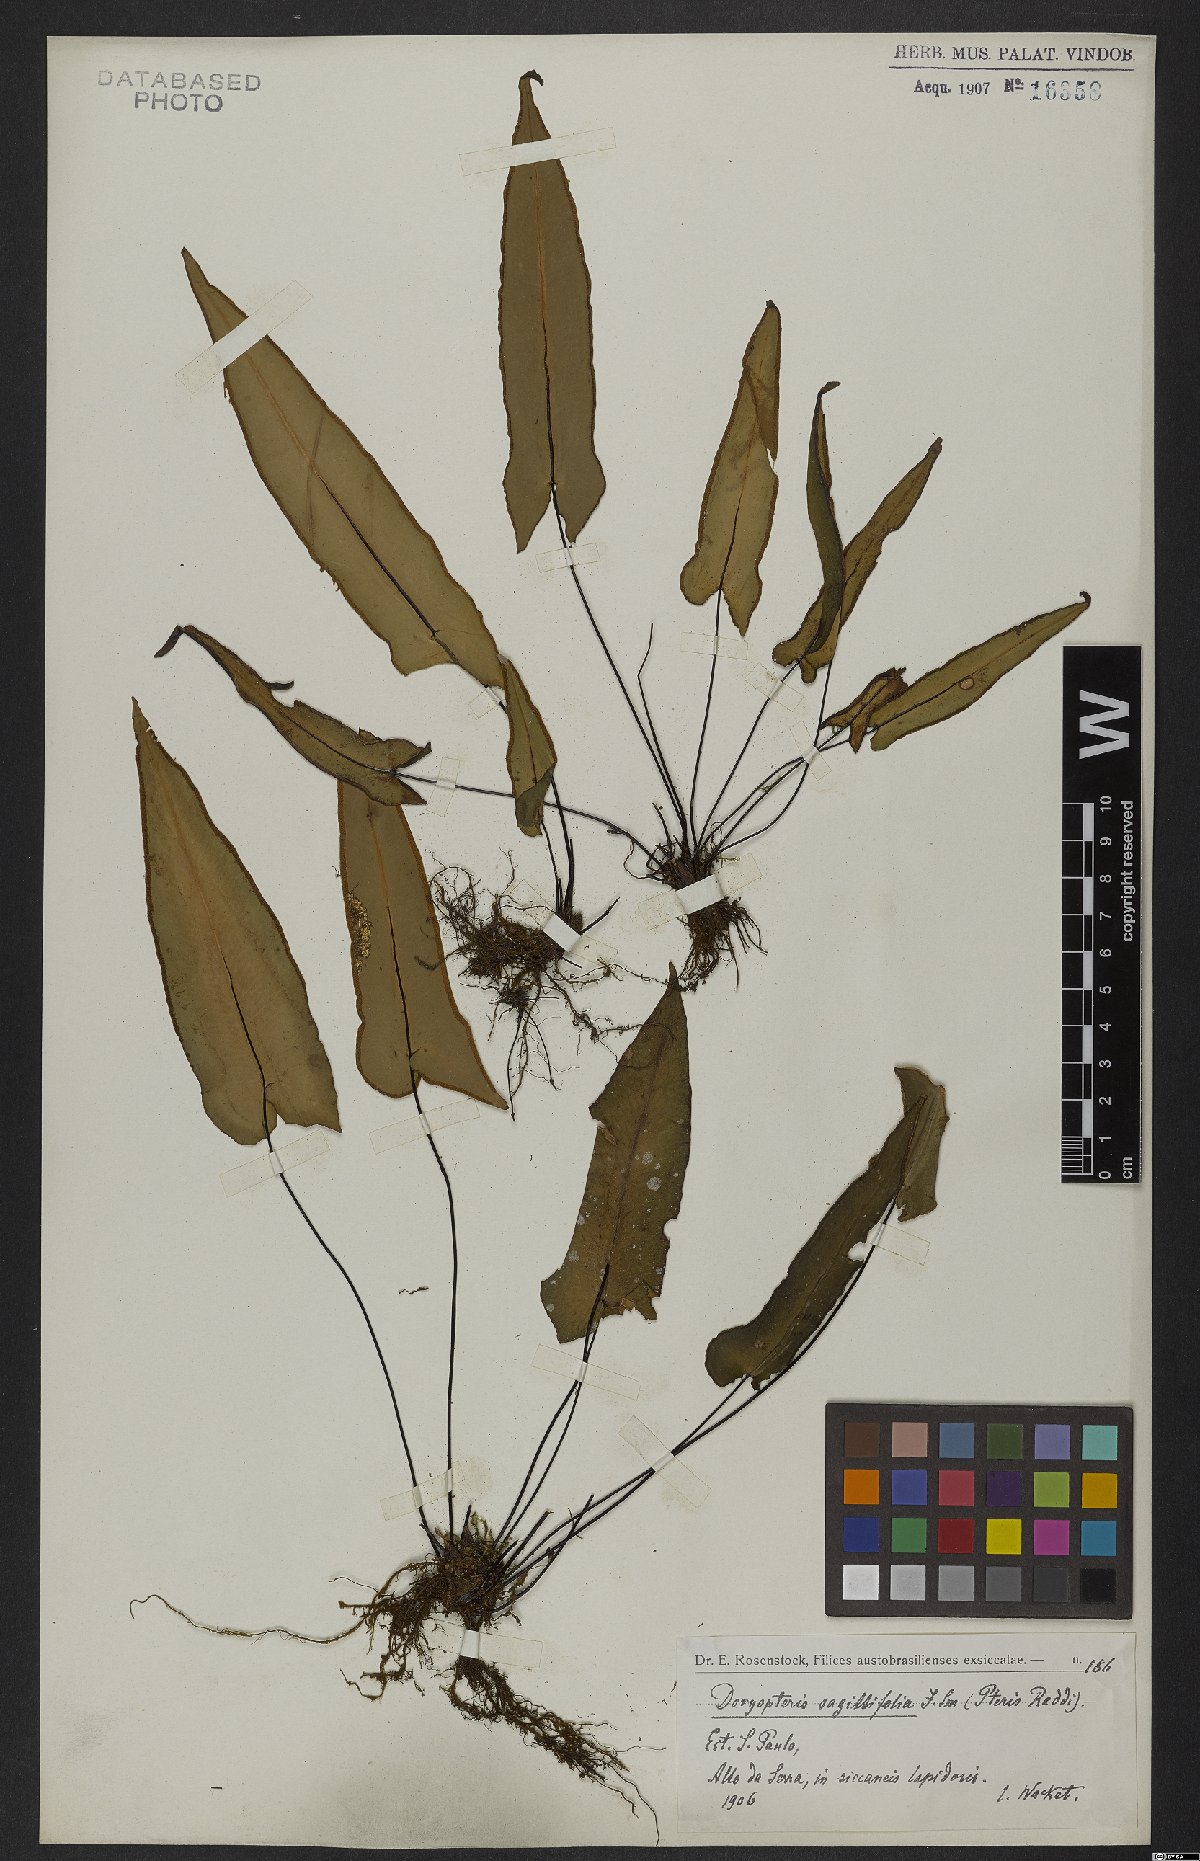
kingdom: Plantae
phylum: Tracheophyta
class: Polypodiopsida
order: Polypodiales
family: Pteridaceae
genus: Doryopteris
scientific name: Doryopteris sagittifolia
